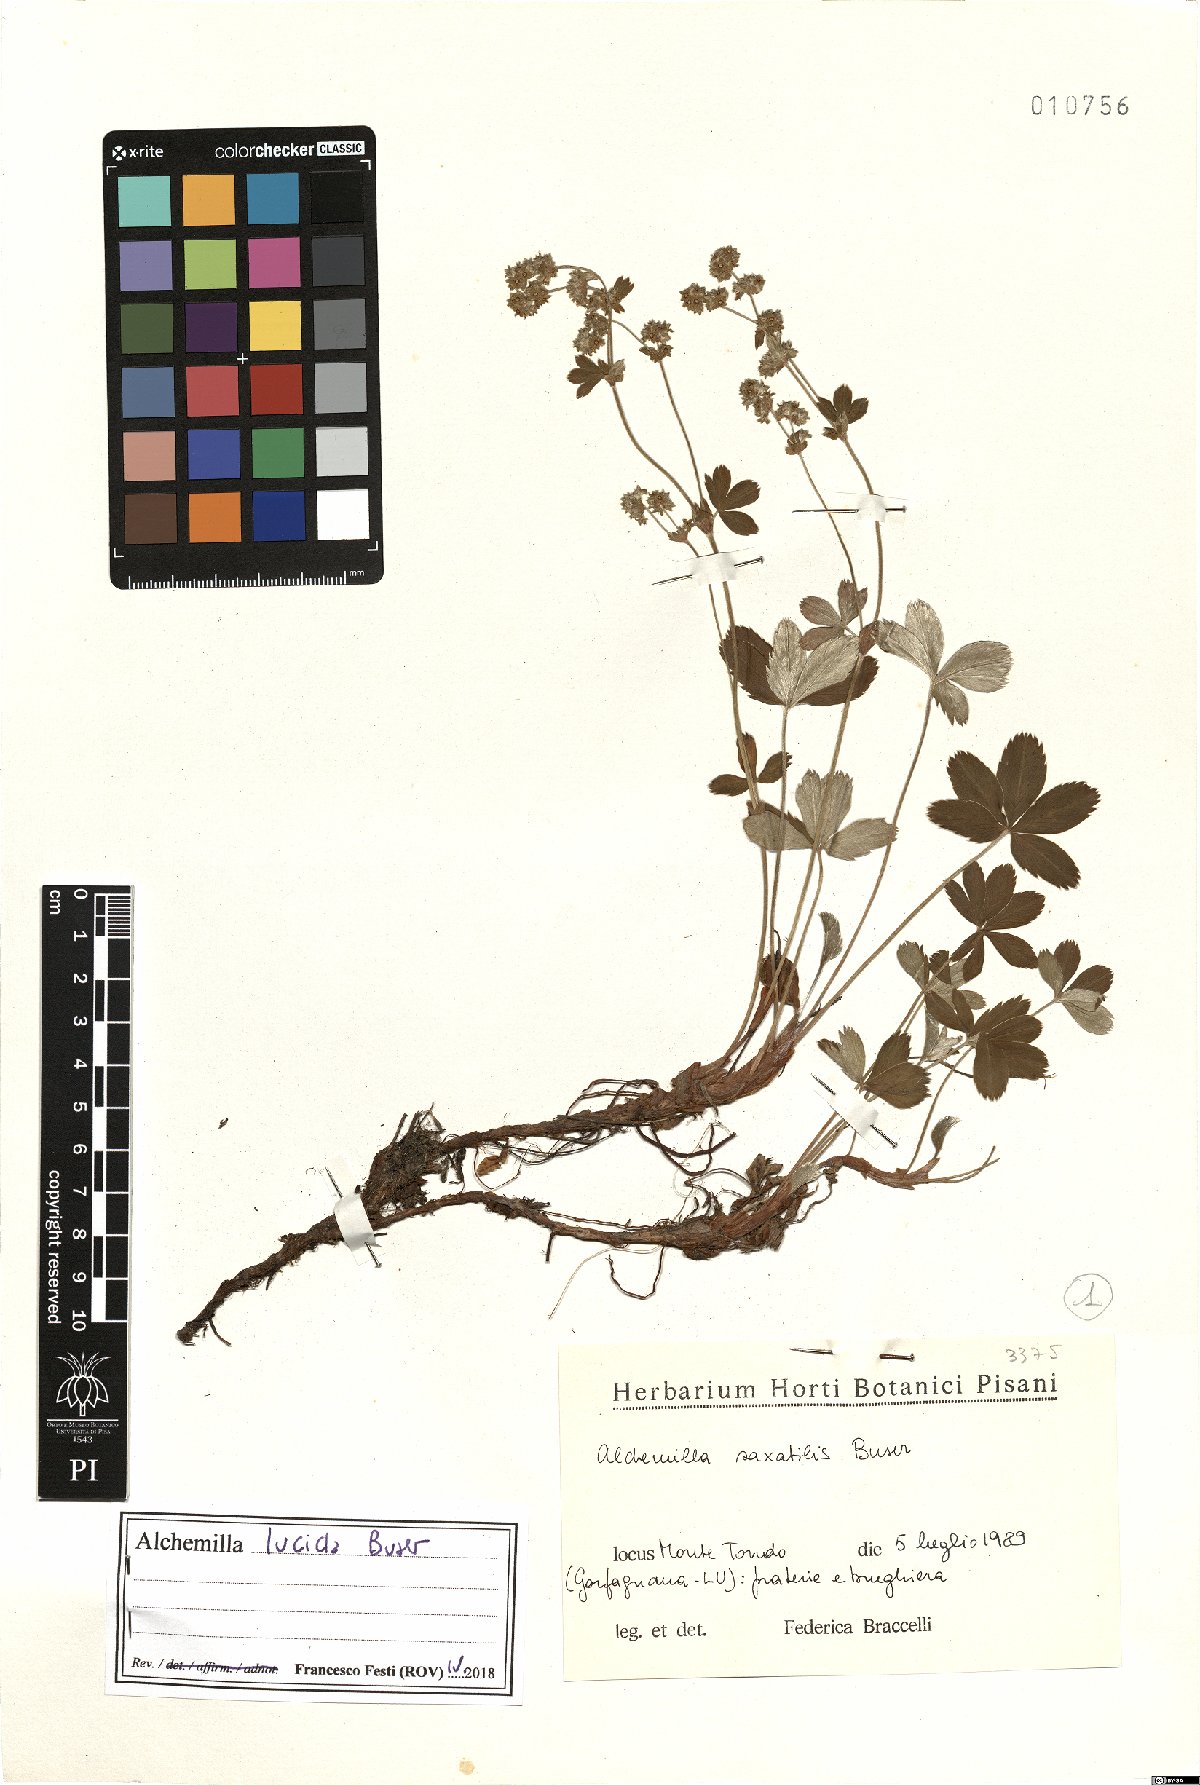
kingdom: Plantae
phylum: Tracheophyta
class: Magnoliopsida
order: Rosales
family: Rosaceae
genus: Alchemilla
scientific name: Alchemilla lucida
